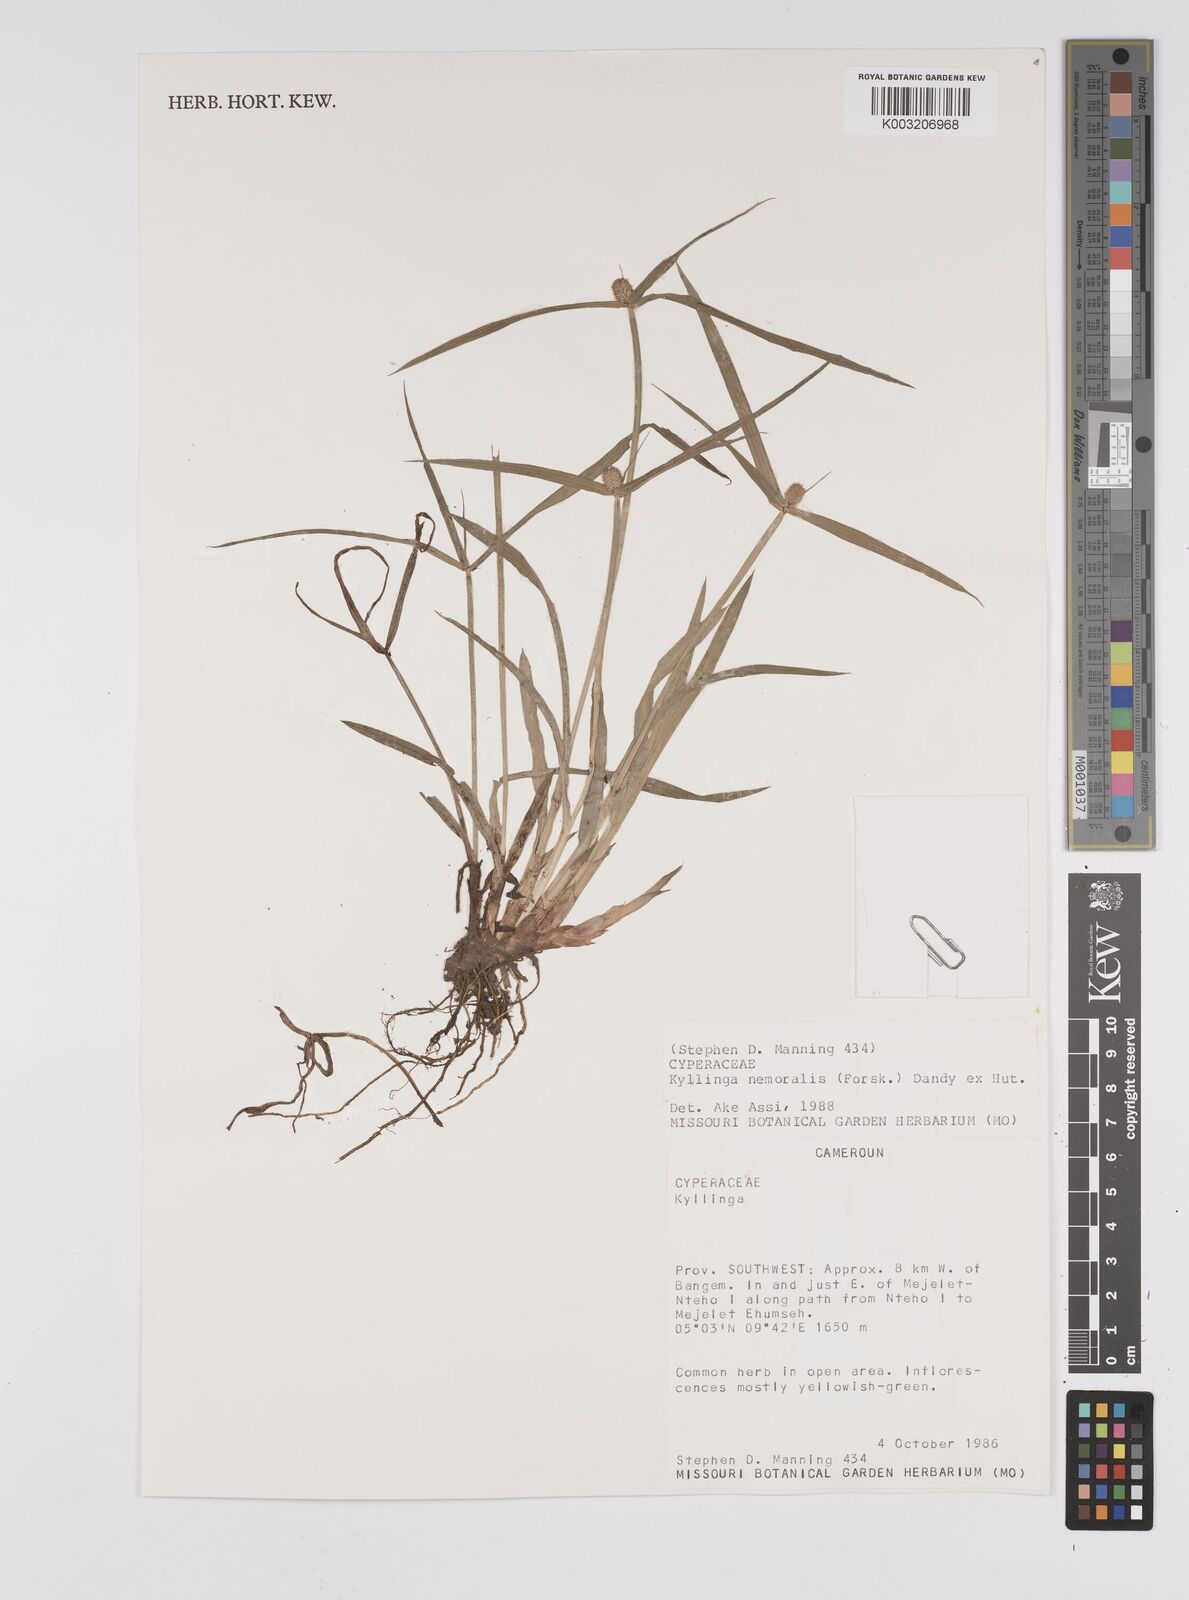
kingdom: Plantae
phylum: Tracheophyta
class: Liliopsida
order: Poales
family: Cyperaceae
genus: Cyperus
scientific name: Cyperus nemoralis
